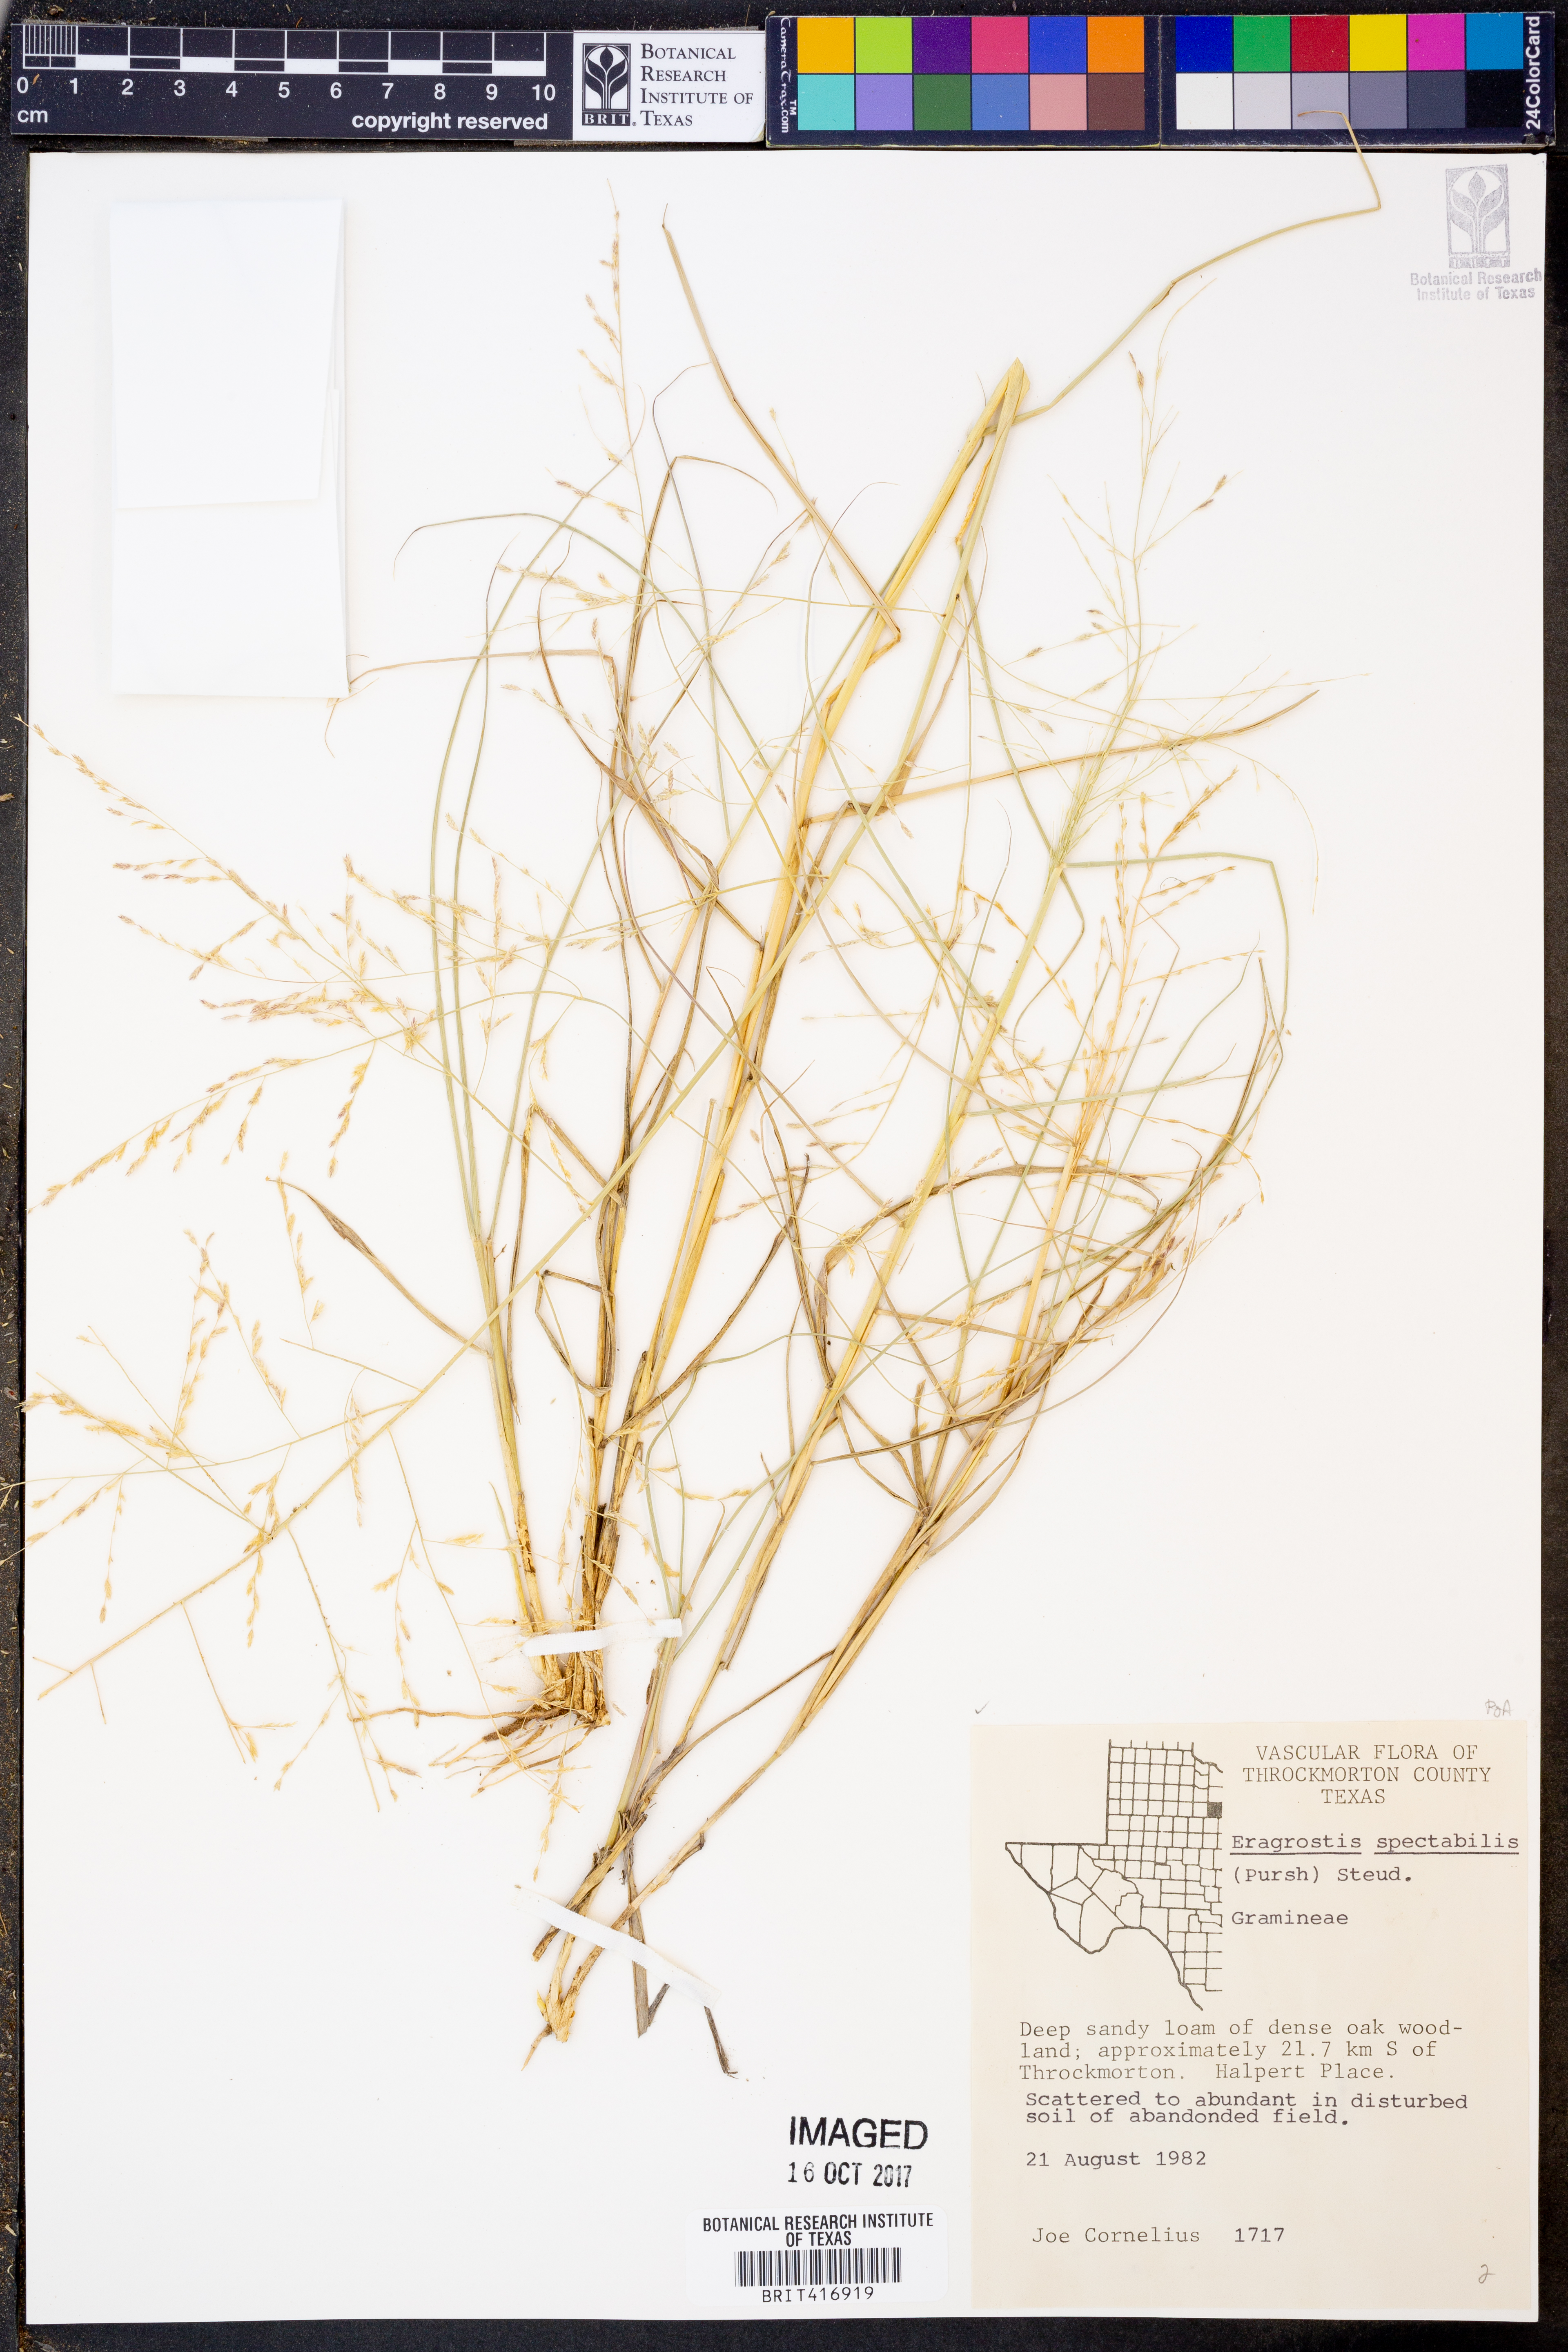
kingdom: Plantae
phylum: Tracheophyta
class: Liliopsida
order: Poales
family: Poaceae
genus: Eragrostis
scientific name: Eragrostis spectabilis
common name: Petticoat-climber
